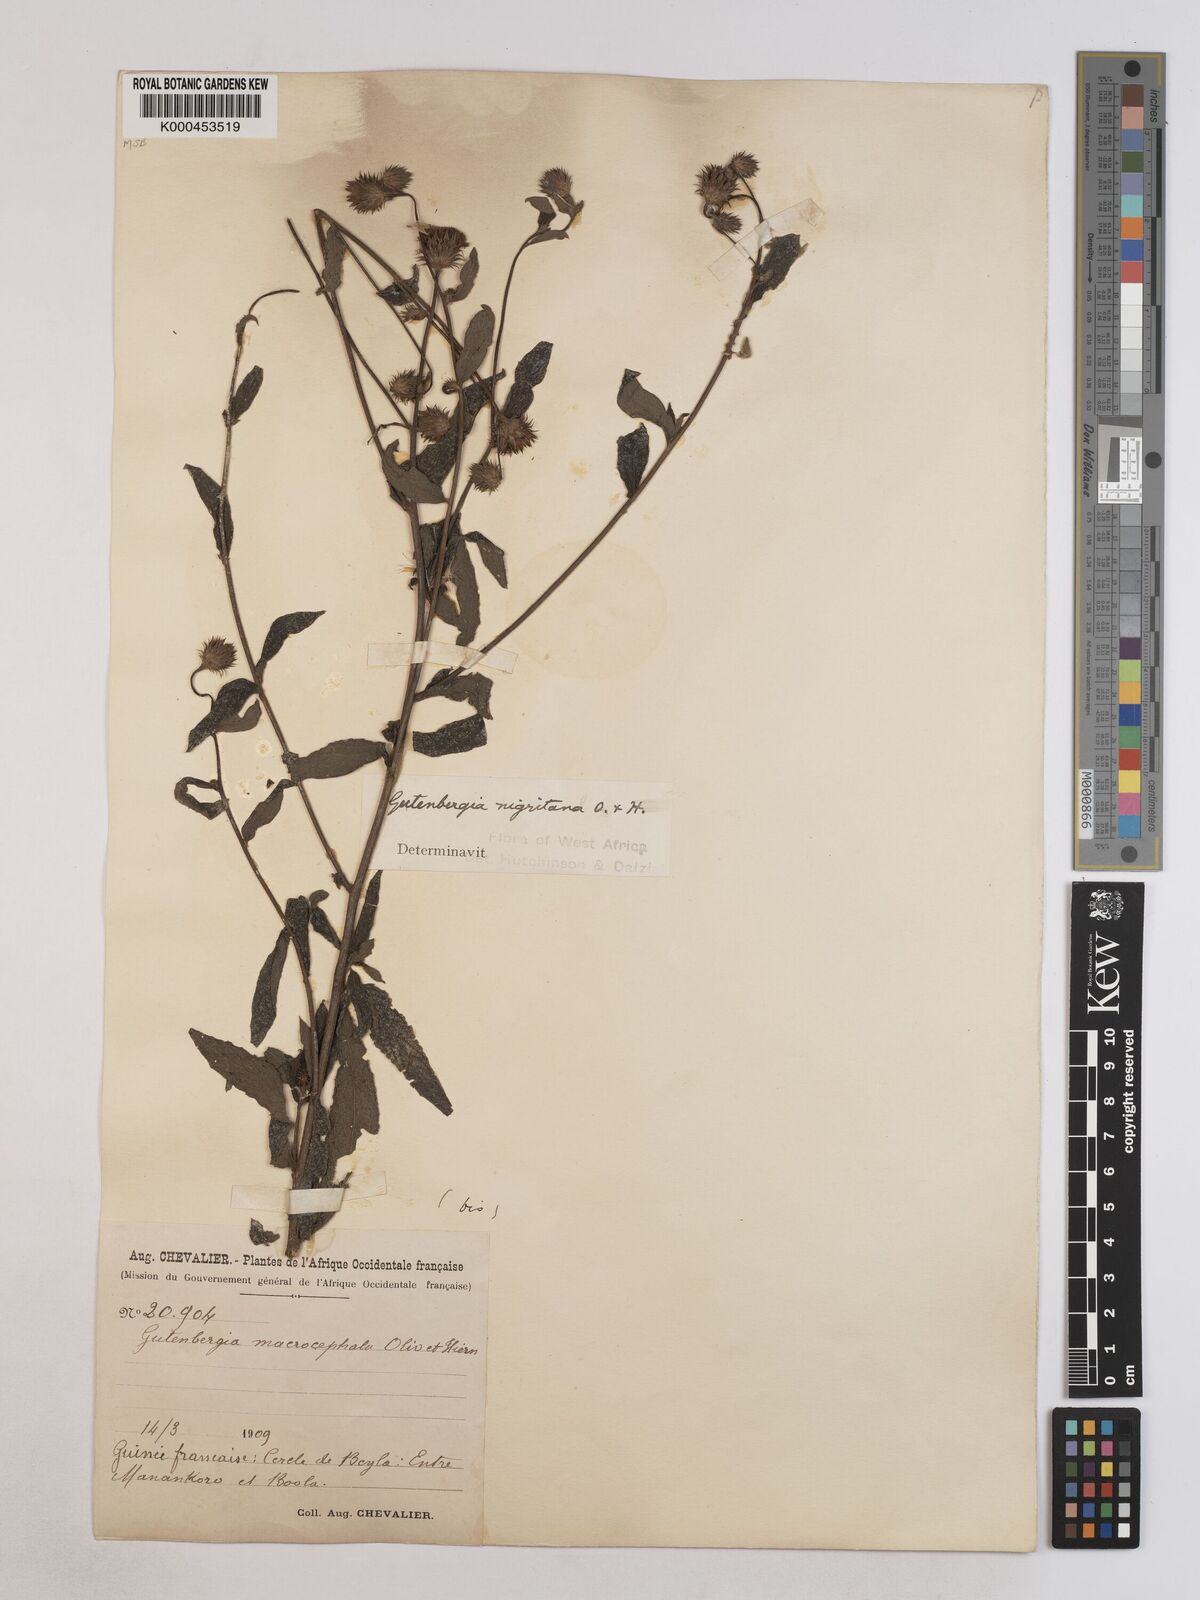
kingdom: Plantae
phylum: Tracheophyta
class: Magnoliopsida
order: Asterales
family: Asteraceae
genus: Kinghamia
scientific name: Kinghamia nigritana
